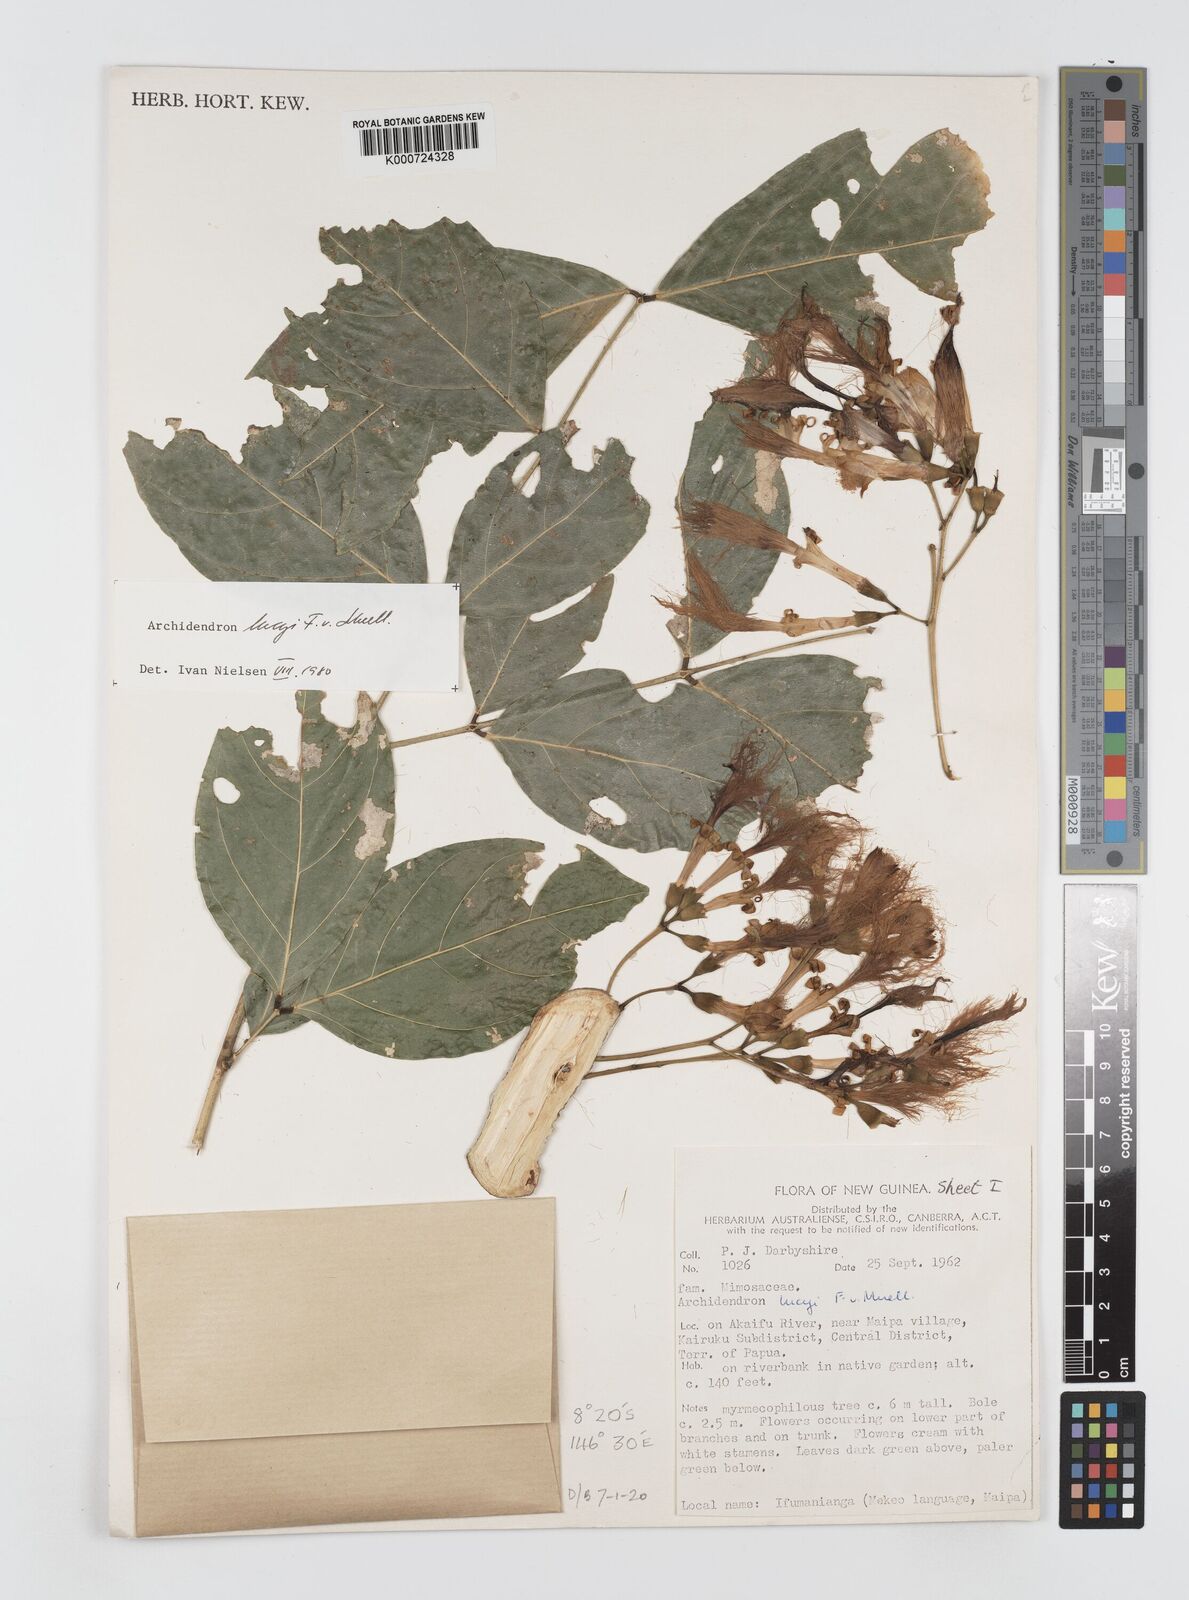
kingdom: Plantae
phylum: Tracheophyta
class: Magnoliopsida
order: Fabales
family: Fabaceae
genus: Archidendron
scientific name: Archidendron lucyi
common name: Scarlet bean
